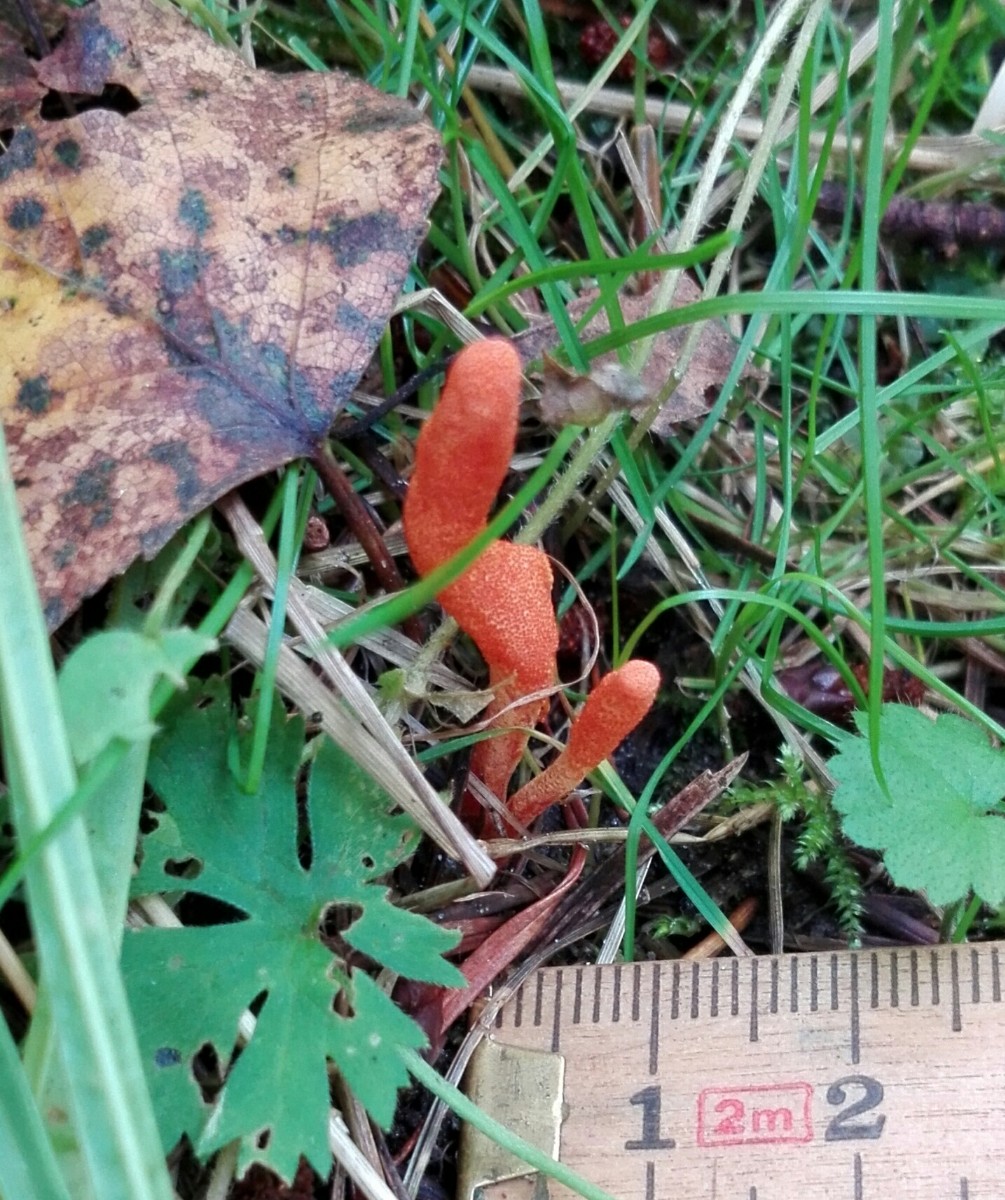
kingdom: Fungi
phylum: Ascomycota
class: Sordariomycetes
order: Hypocreales
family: Cordycipitaceae
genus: Cordyceps
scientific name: Cordyceps militaris
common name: puppe-snyltekølle
